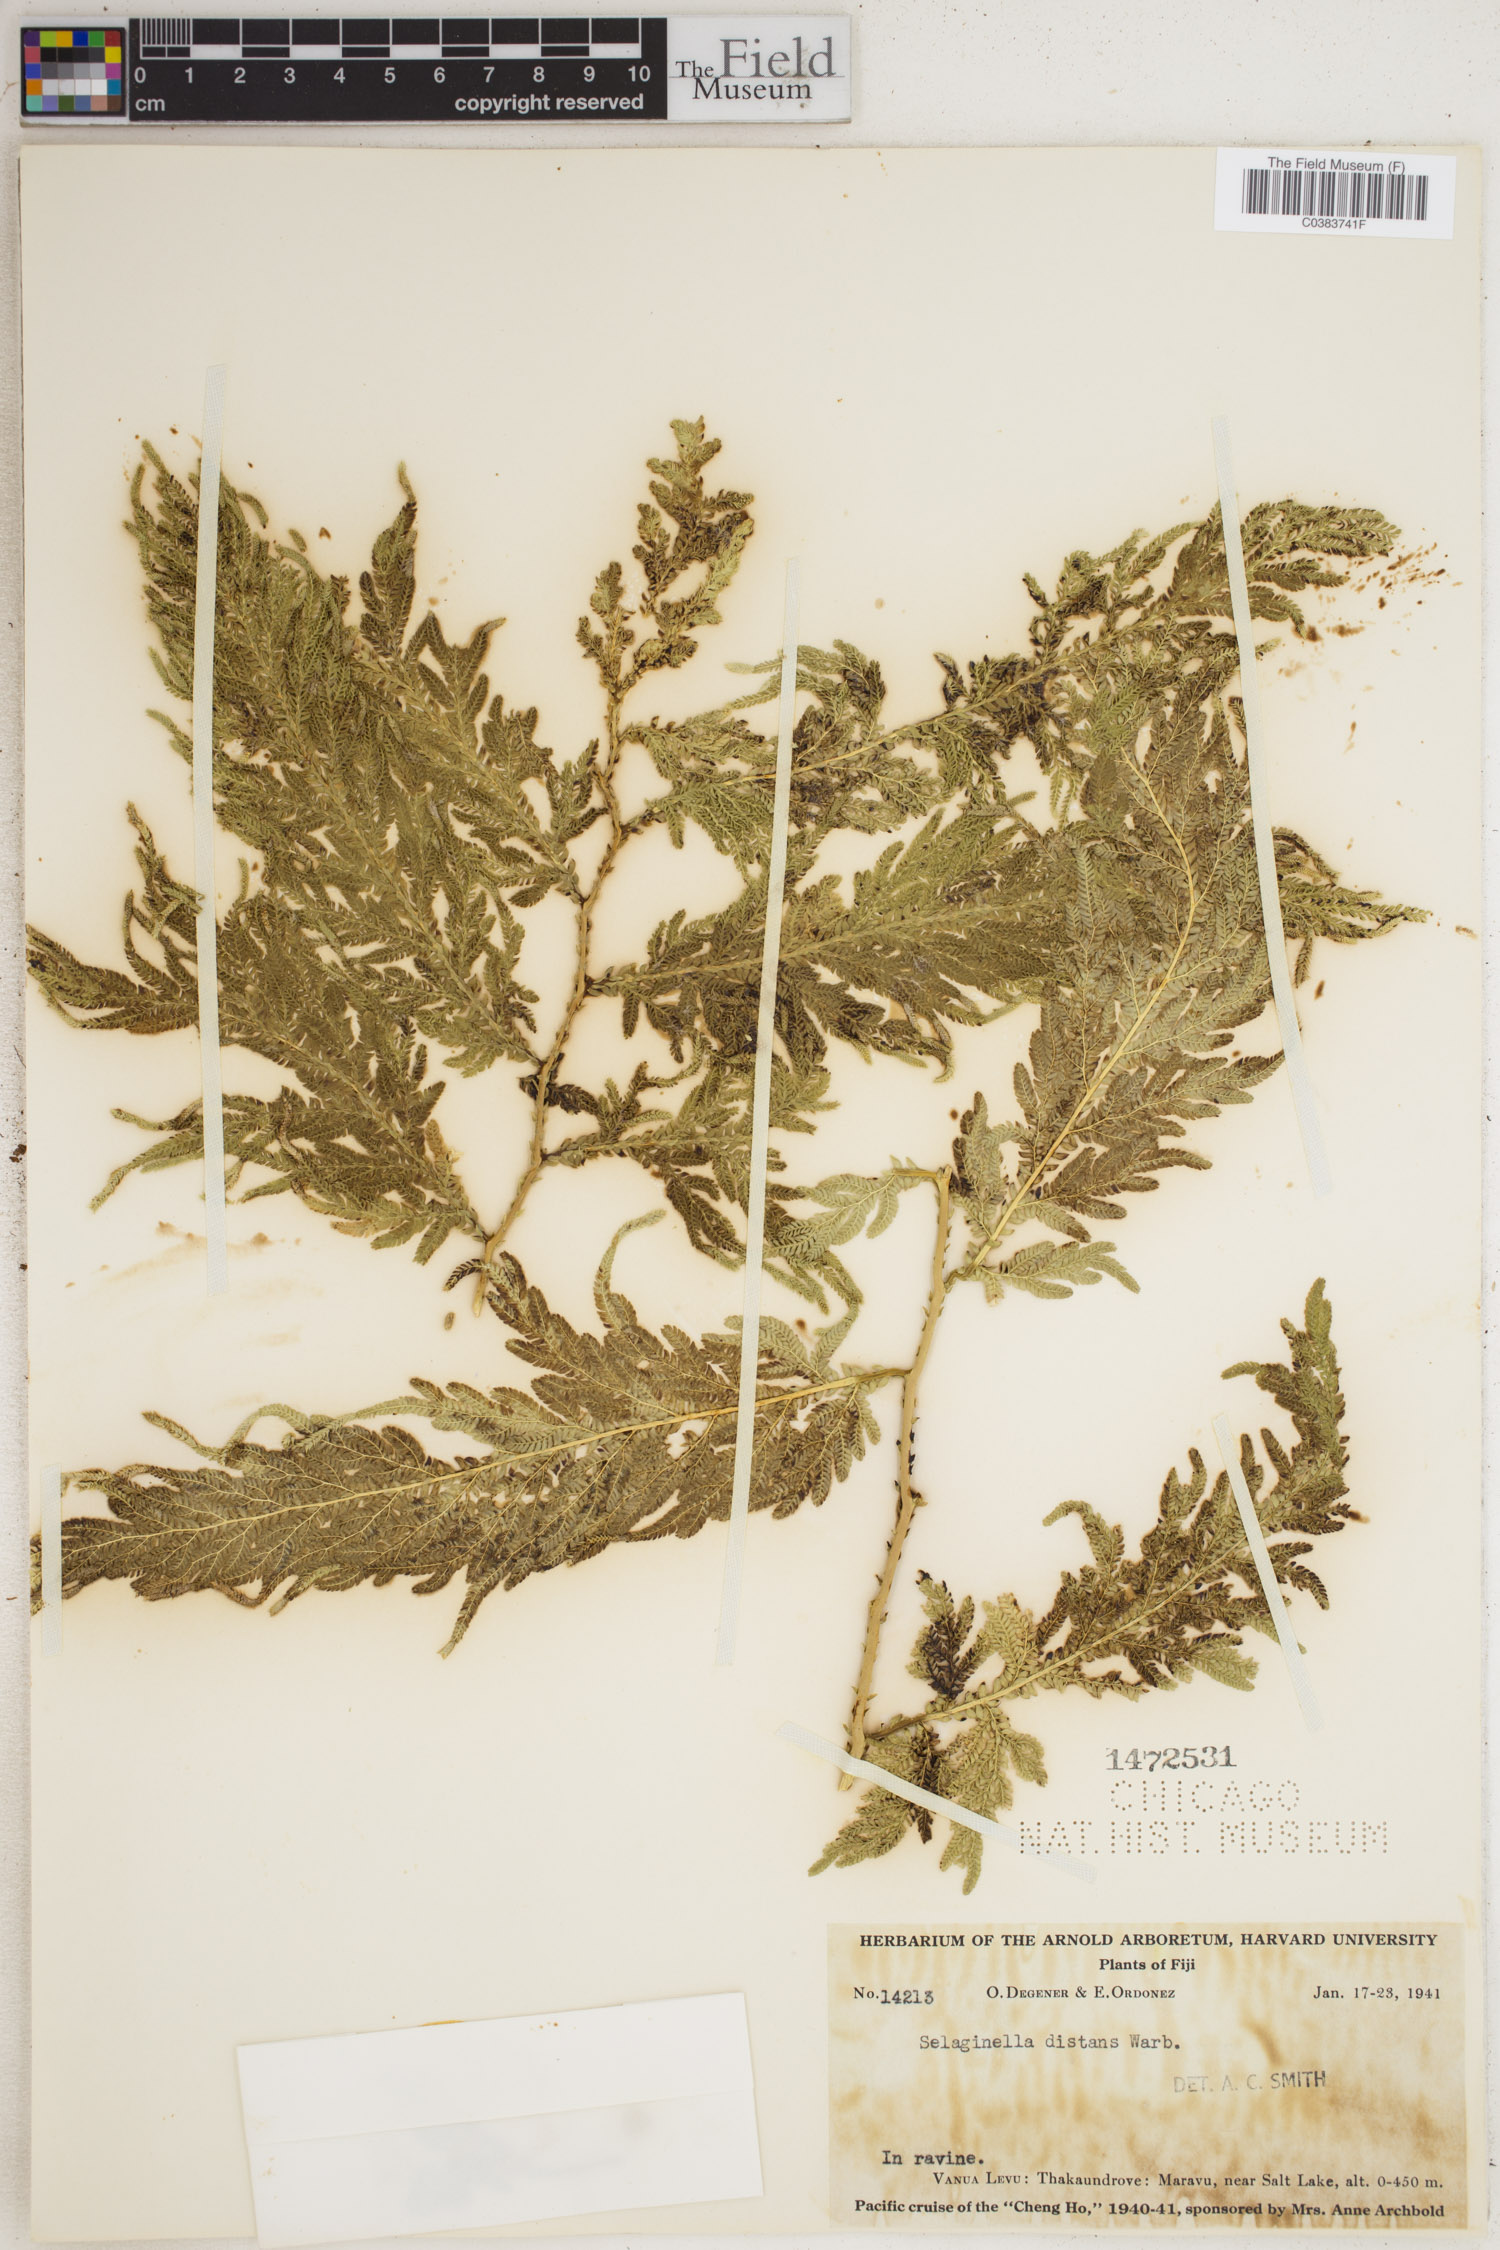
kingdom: Plantae
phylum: Tracheophyta
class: Lycopodiopsida
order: Selaginellales
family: Selaginellaceae
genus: Selaginella
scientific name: Selaginella distans
